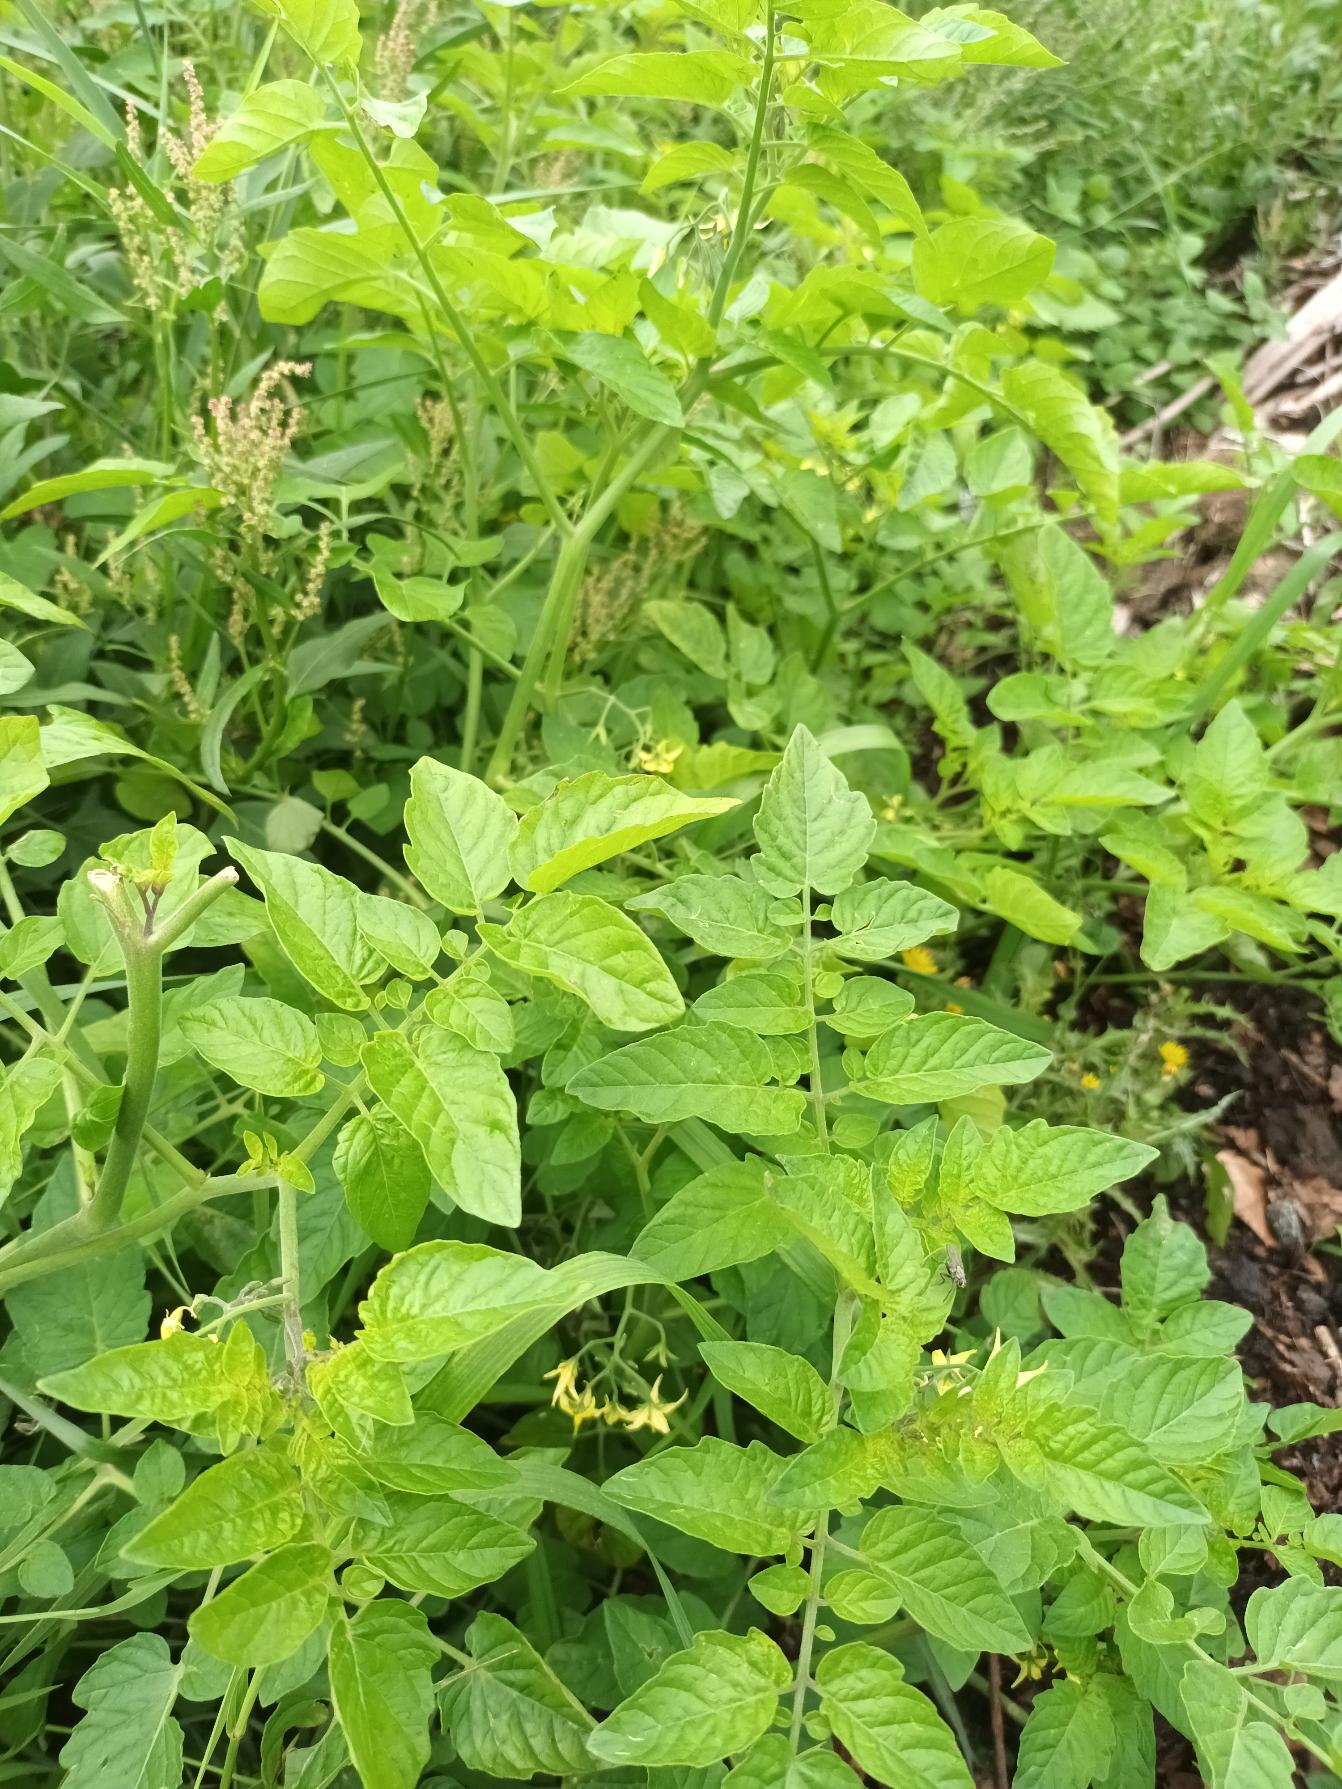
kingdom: Plantae
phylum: Tracheophyta
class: Magnoliopsida
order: Solanales
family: Solanaceae
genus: Solanum
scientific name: Solanum lycopersicum
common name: Tomat
